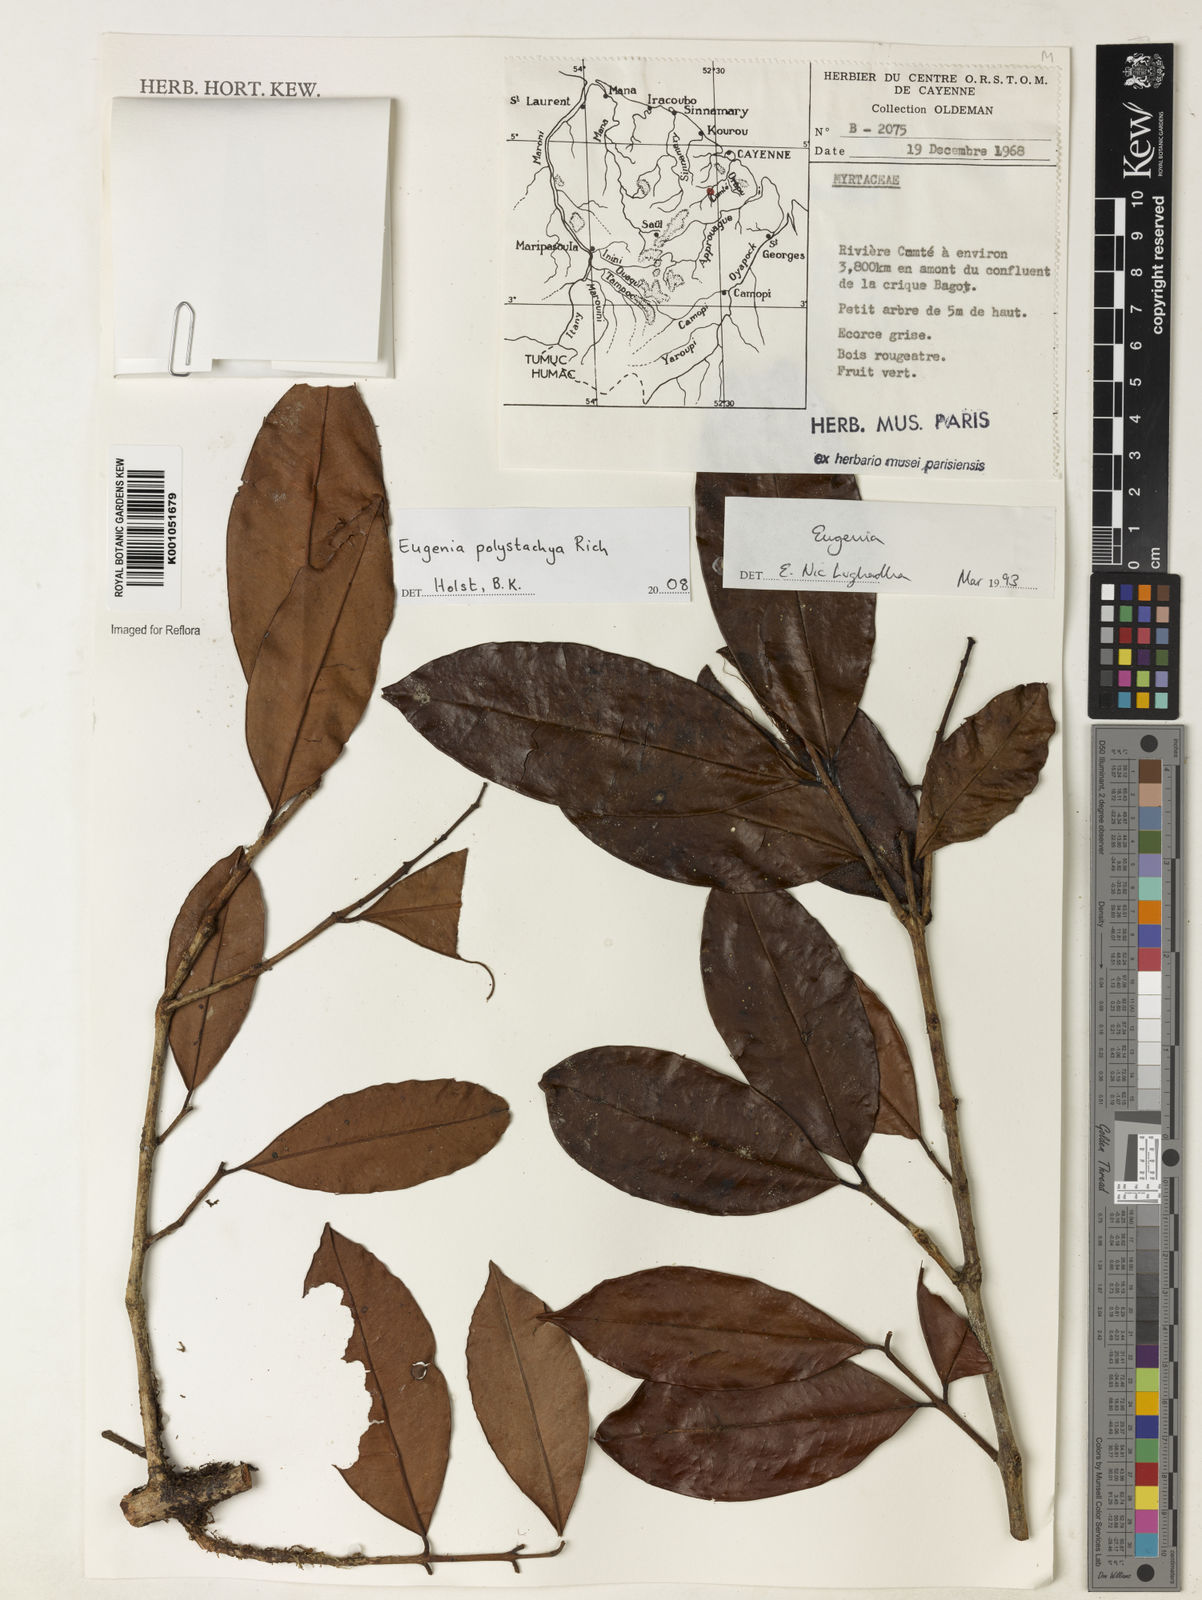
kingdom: Plantae
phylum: Tracheophyta
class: Magnoliopsida
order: Myrtales
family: Myrtaceae
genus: Eugenia
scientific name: Eugenia polystachya
